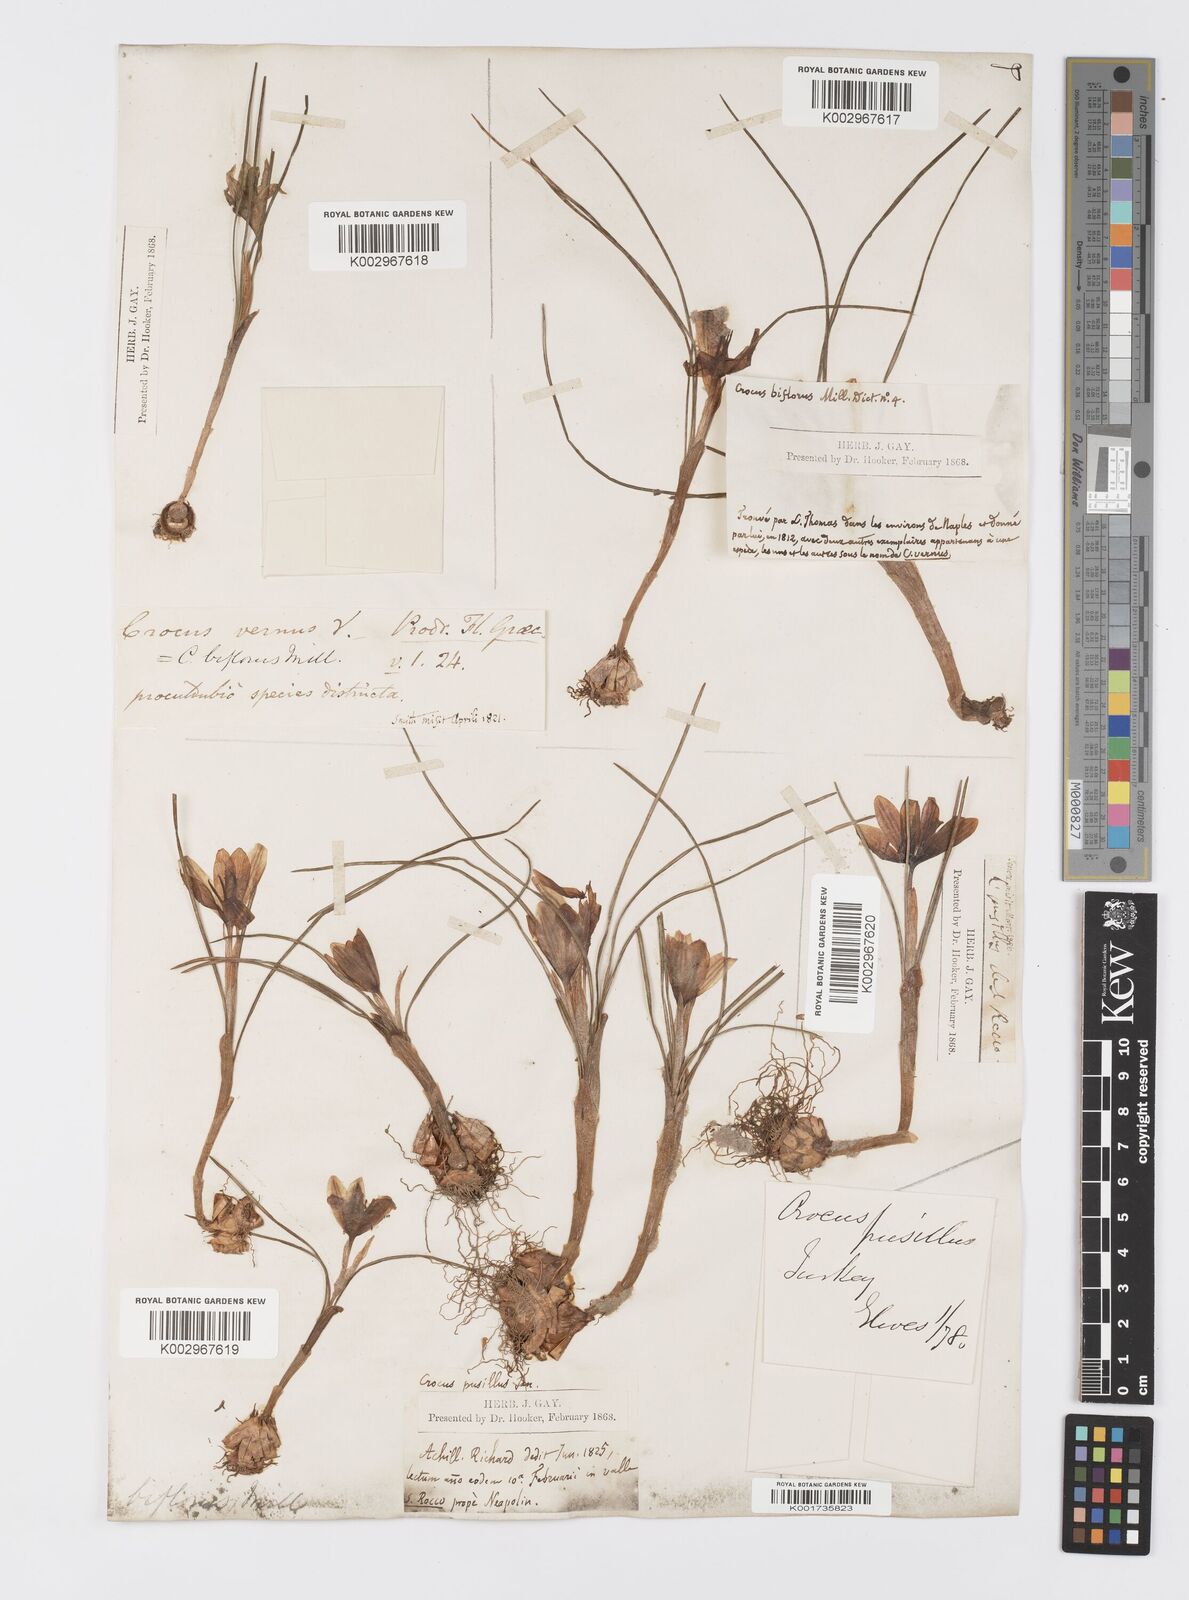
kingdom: Plantae
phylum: Tracheophyta
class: Liliopsida
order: Asparagales
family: Iridaceae
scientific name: Iridaceae
